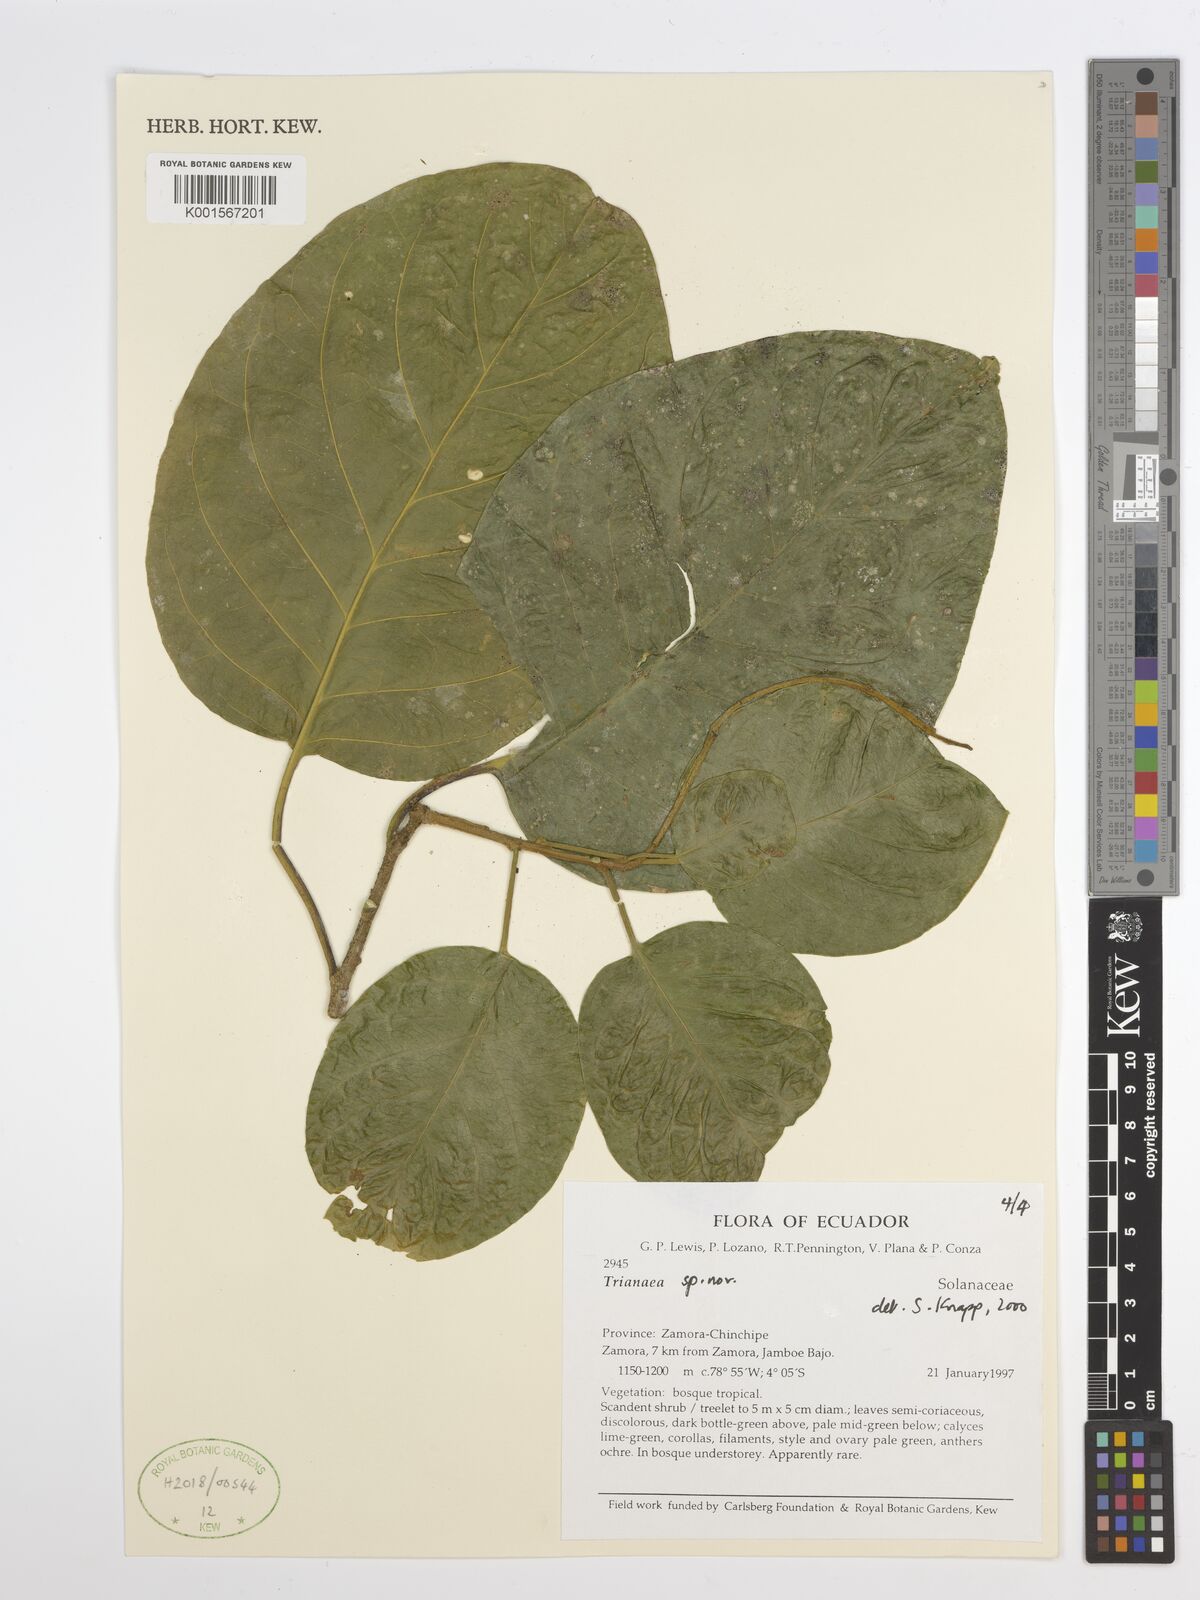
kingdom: Plantae
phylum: Tracheophyta
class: Magnoliopsida
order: Solanales
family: Solanaceae
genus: Trianaea
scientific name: Trianaea
